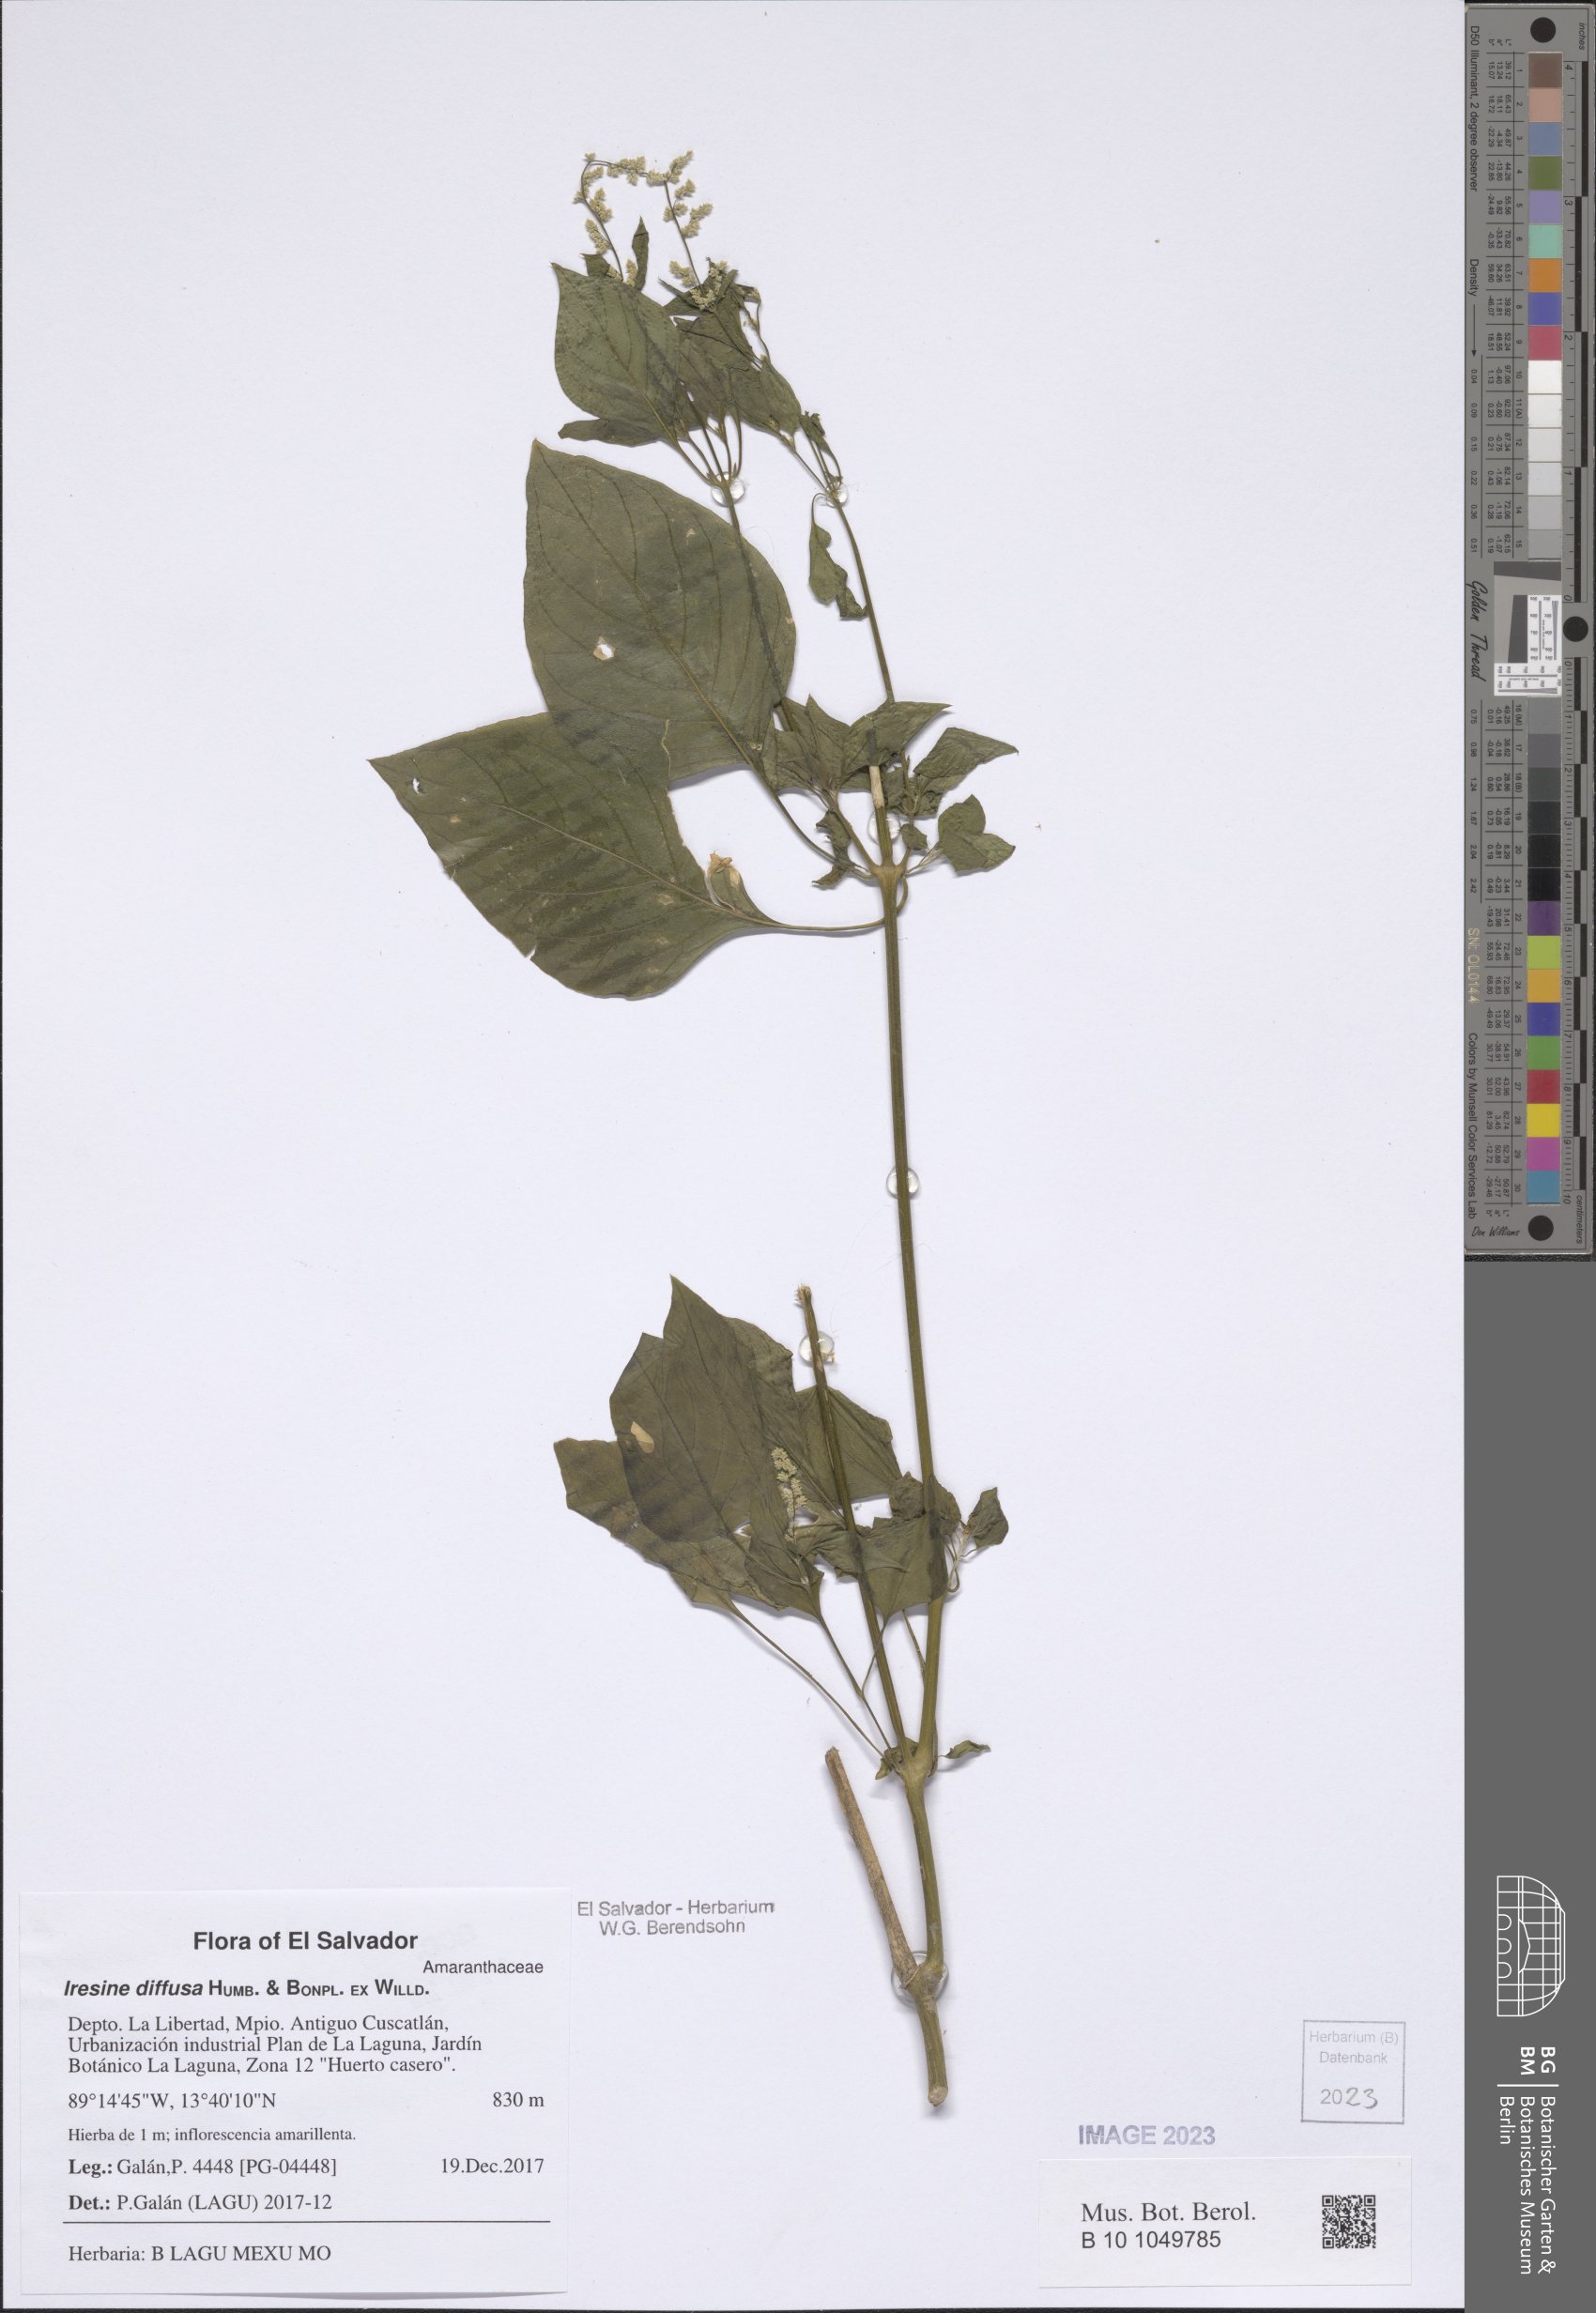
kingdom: Plantae
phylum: Tracheophyta
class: Magnoliopsida
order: Caryophyllales
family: Amaranthaceae
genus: Iresine
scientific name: Iresine diffusa
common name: Juba's-bush
